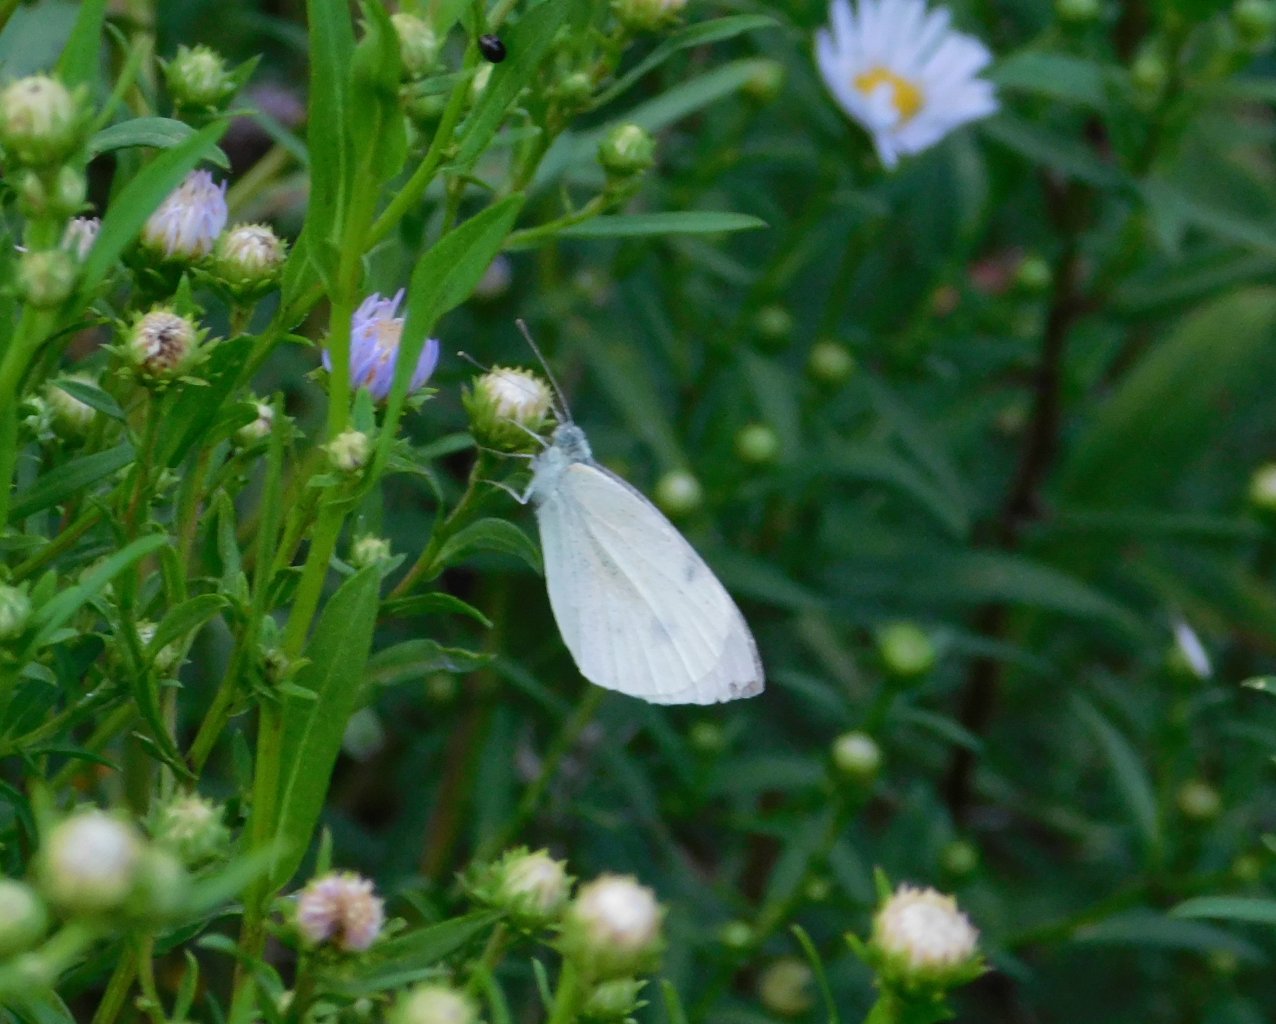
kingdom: Animalia
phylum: Arthropoda
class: Insecta
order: Lepidoptera
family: Pieridae
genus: Pieris
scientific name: Pieris rapae
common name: Cabbage White
